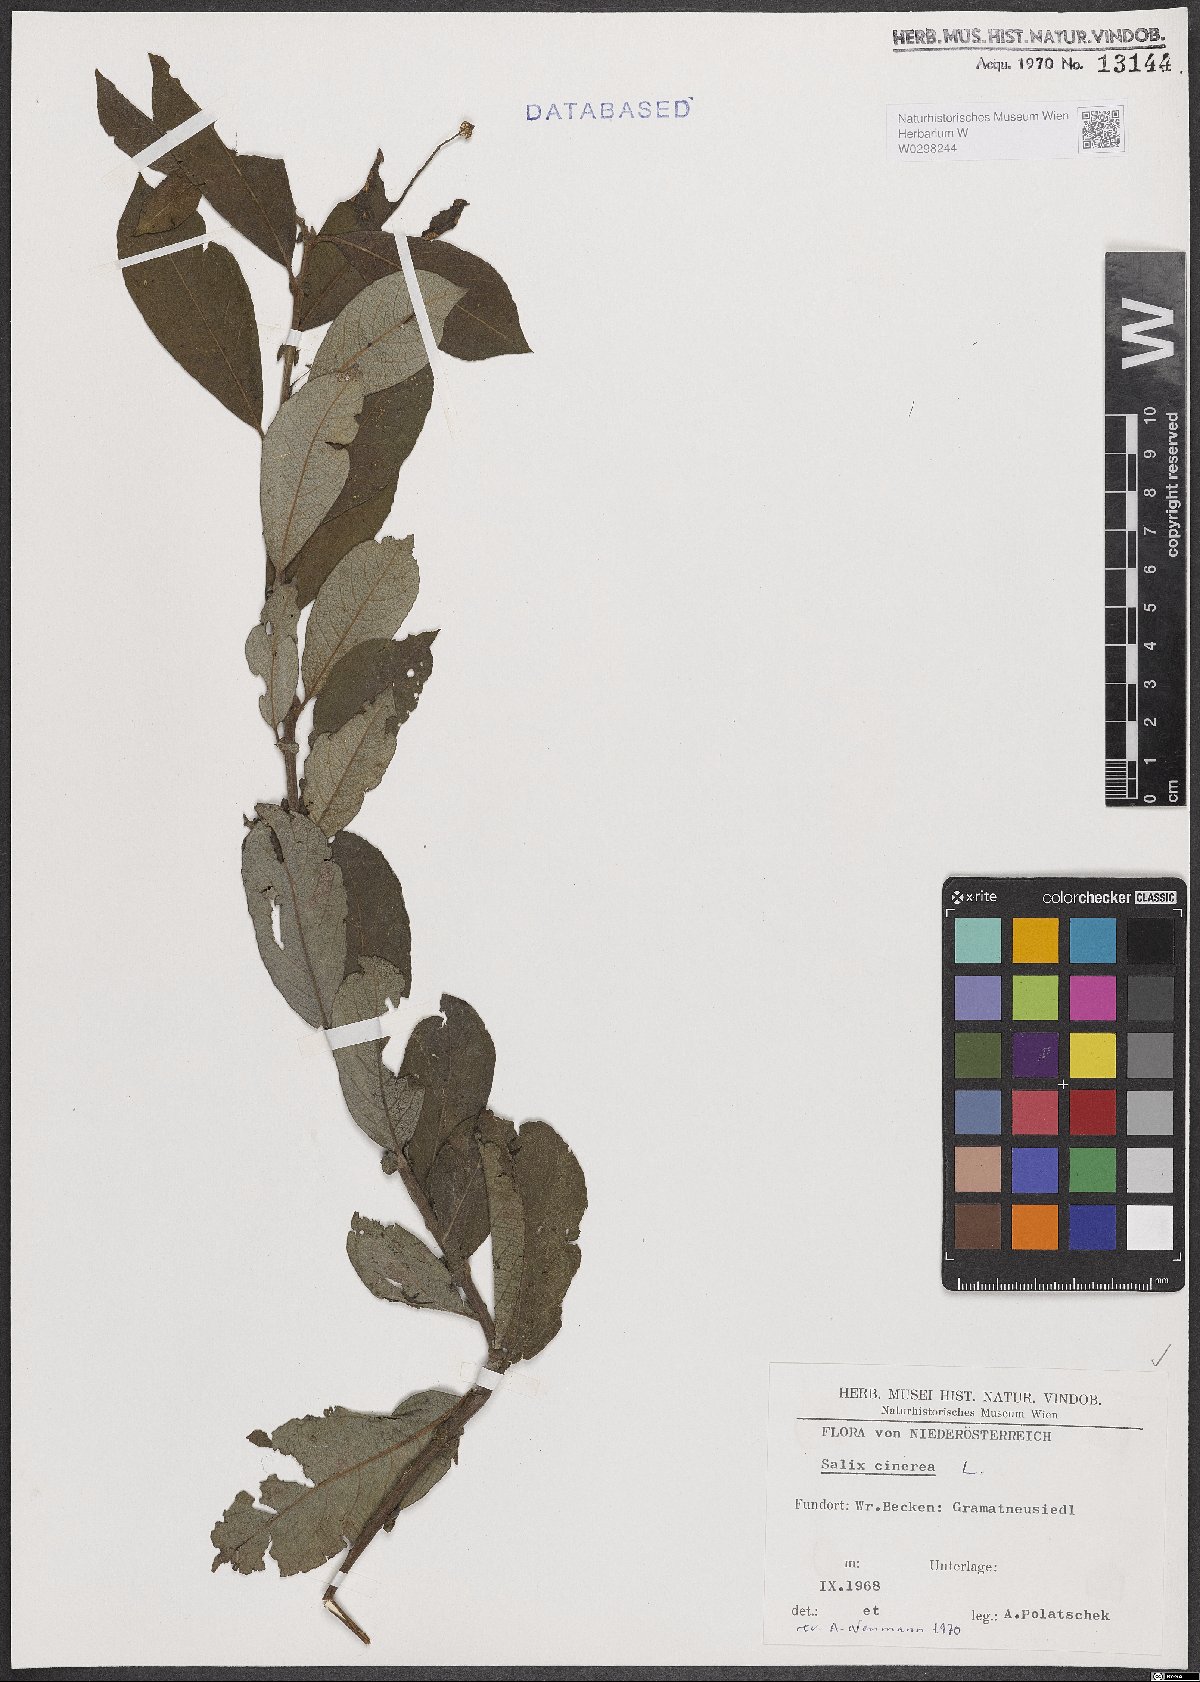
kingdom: Plantae
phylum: Tracheophyta
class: Magnoliopsida
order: Malpighiales
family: Salicaceae
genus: Salix
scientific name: Salix cinerea
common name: Common sallow
